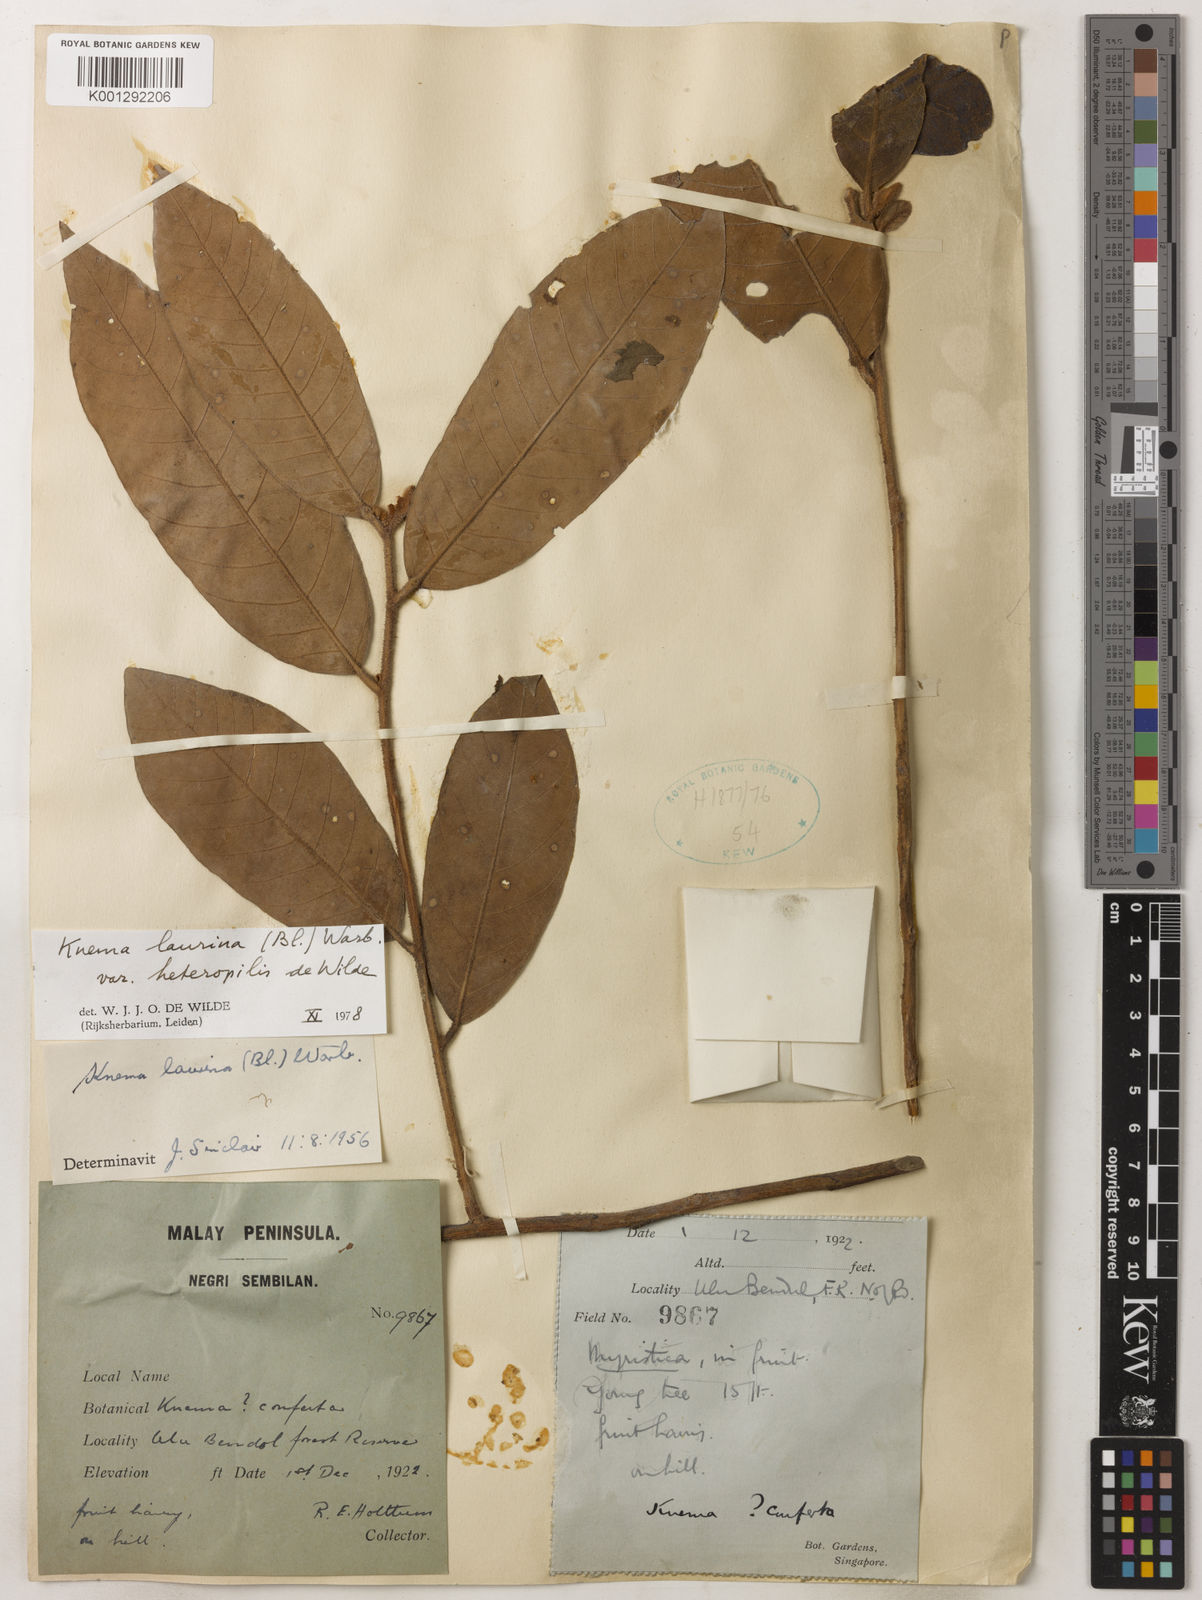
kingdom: Plantae
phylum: Tracheophyta
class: Magnoliopsida
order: Magnoliales
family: Myristicaceae
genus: Knema
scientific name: Knema laurina
